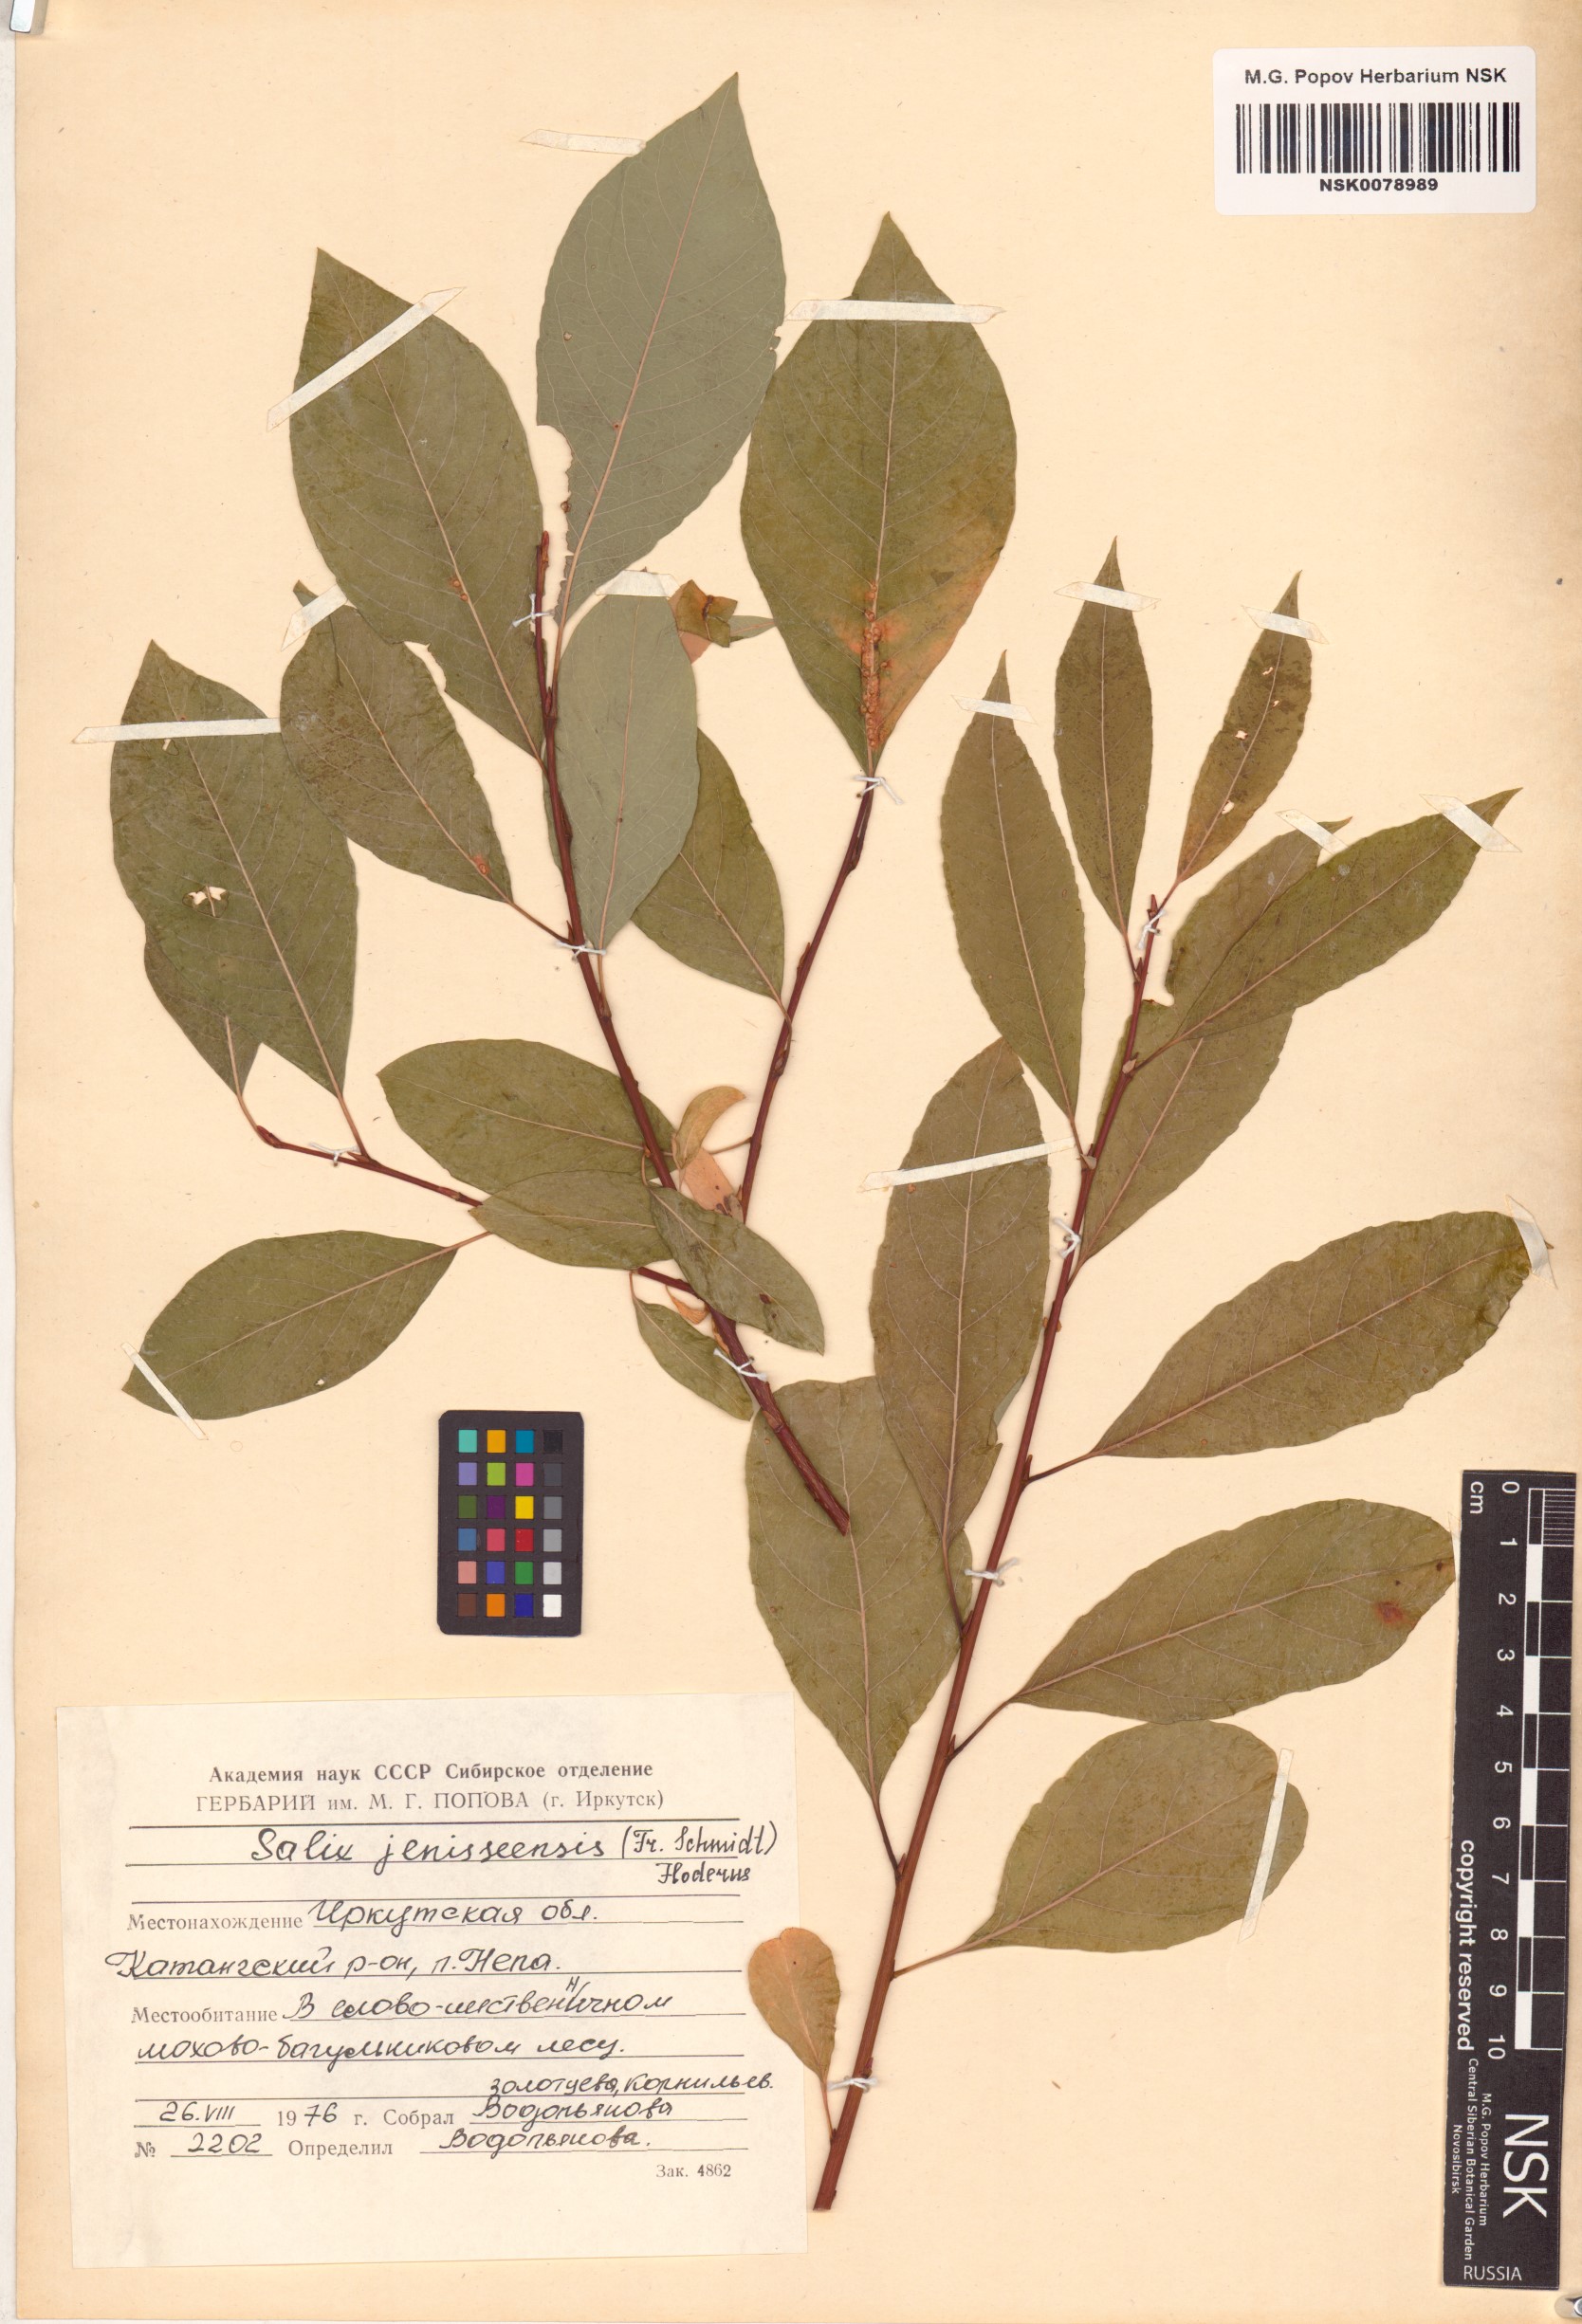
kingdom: Plantae
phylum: Tracheophyta
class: Magnoliopsida
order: Malpighiales
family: Salicaceae
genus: Salix
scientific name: Salix jenisseensis
